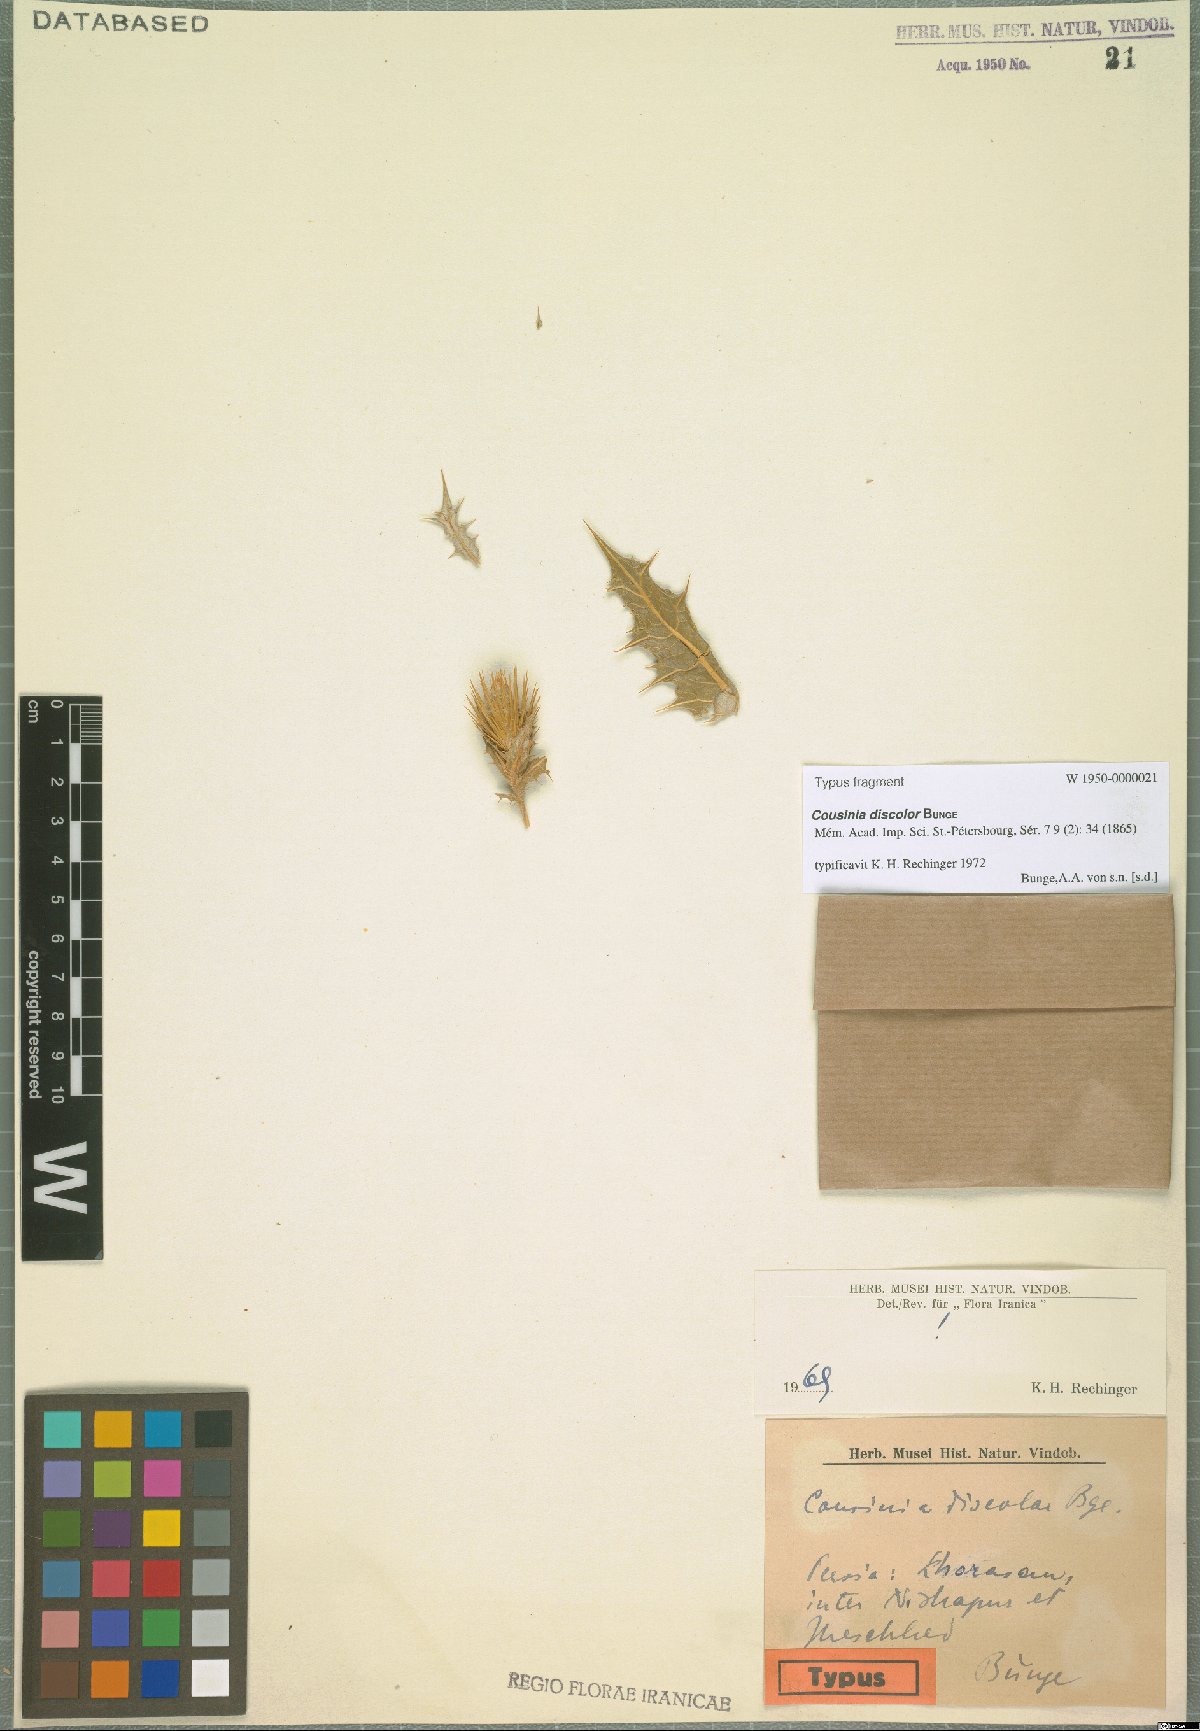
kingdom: Plantae
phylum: Tracheophyta
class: Magnoliopsida
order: Asterales
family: Asteraceae
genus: Cousinia
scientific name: Cousinia discolor
